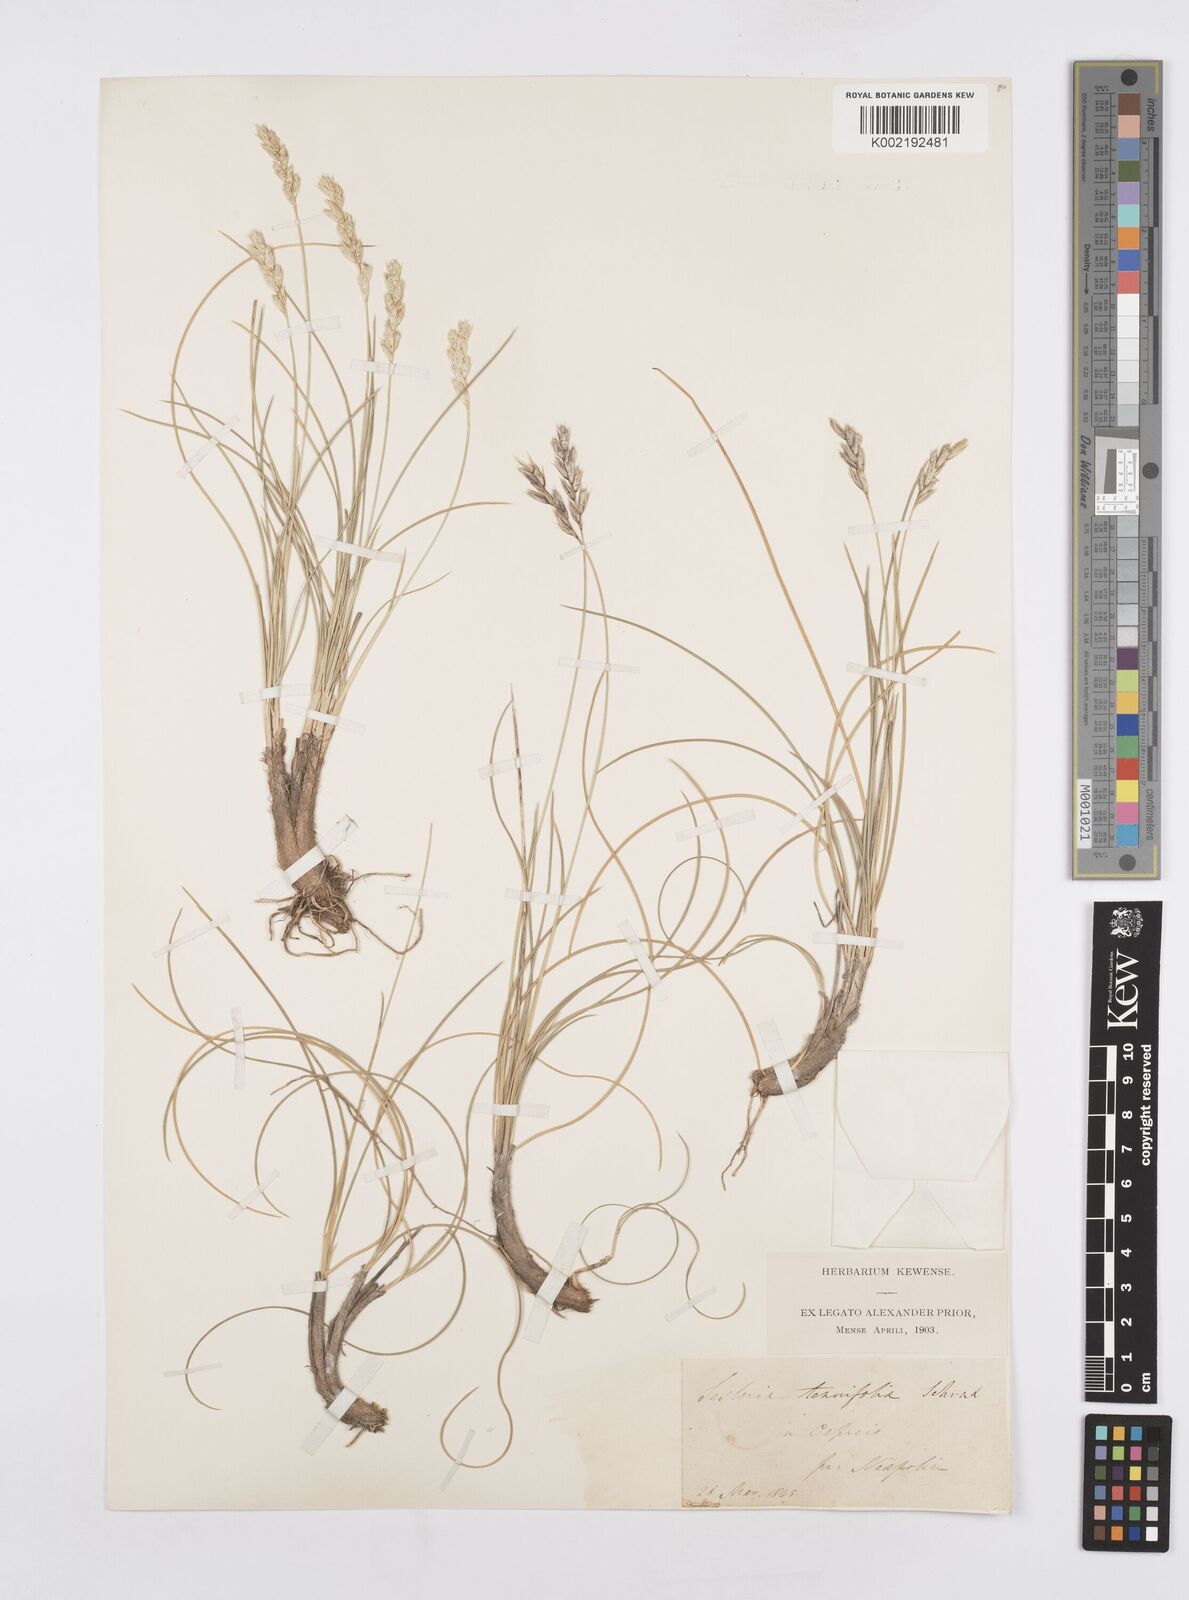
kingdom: Plantae
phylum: Tracheophyta
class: Liliopsida
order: Poales
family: Poaceae
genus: Sesleria
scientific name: Sesleria juncifolia
